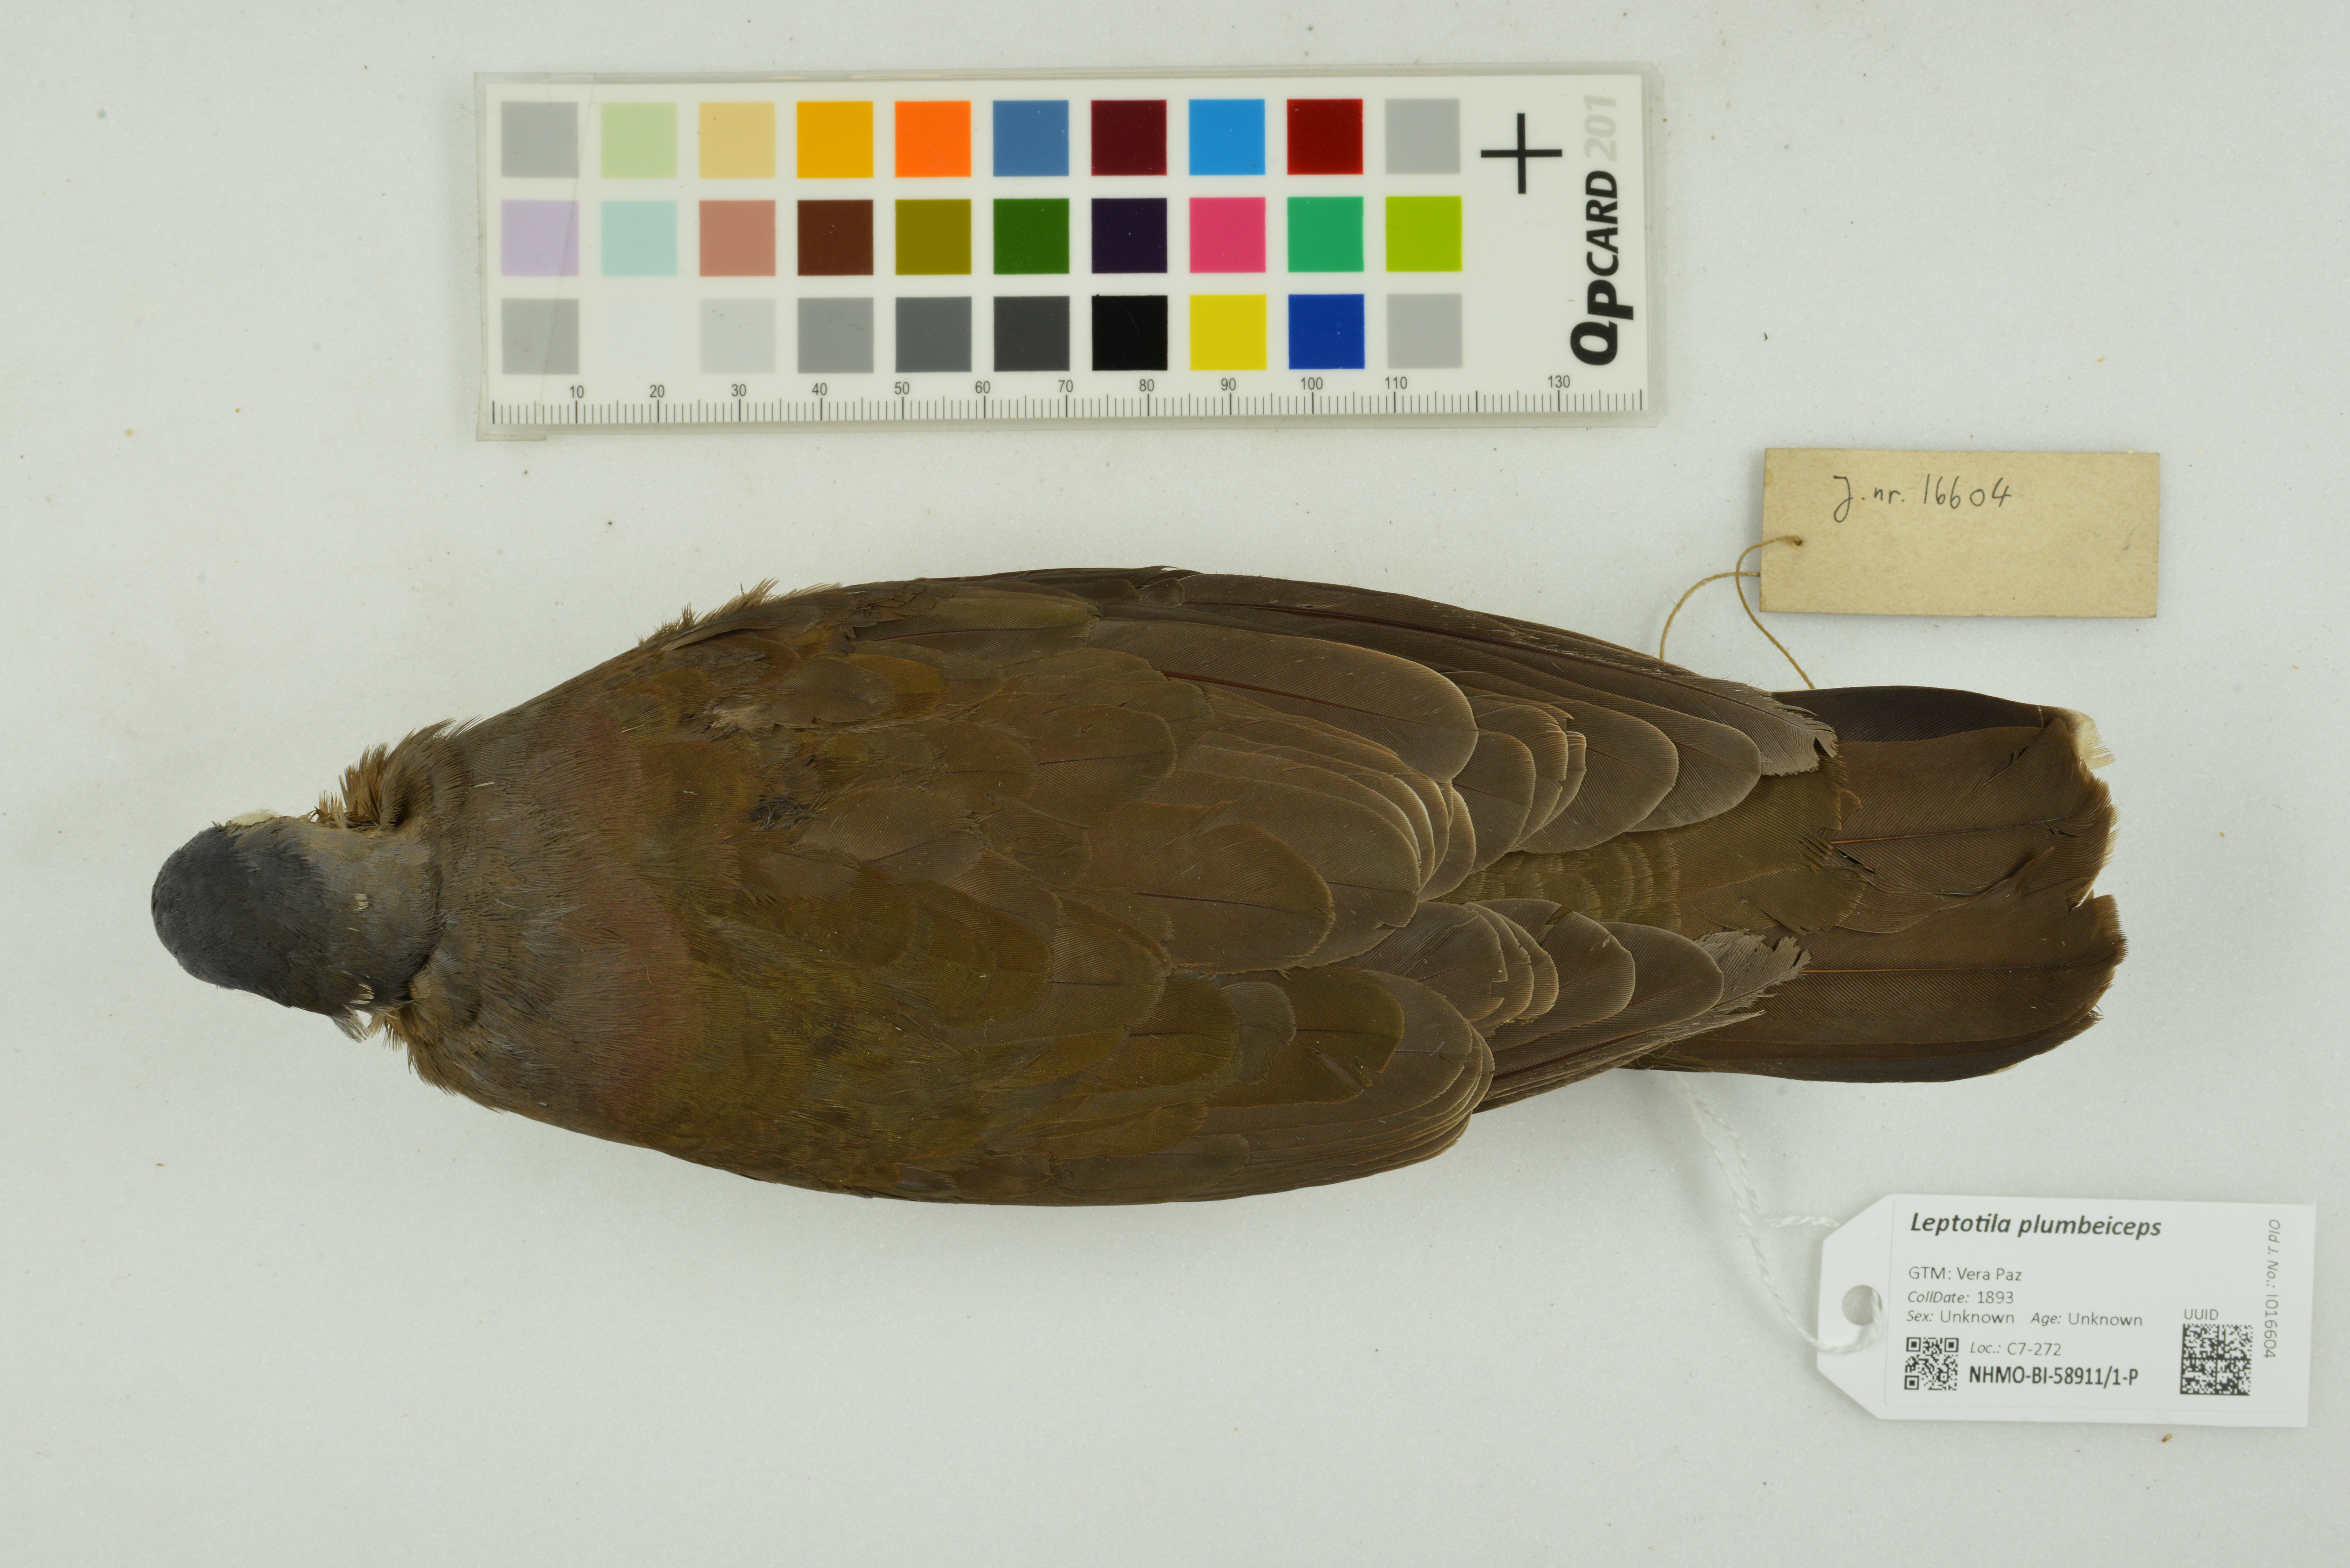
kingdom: Animalia
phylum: Chordata
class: Aves
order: Columbiformes
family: Columbidae
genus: Leptotila
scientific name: Leptotila plumbeiceps
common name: Grey-headed dove
